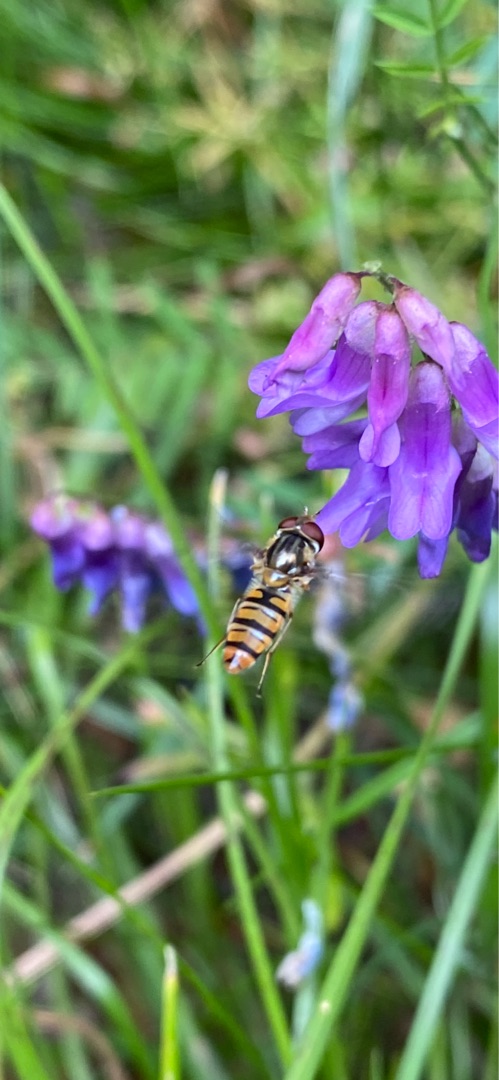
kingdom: Animalia
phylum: Arthropoda
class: Insecta
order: Diptera
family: Syrphidae
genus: Episyrphus
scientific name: Episyrphus balteatus
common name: Dobbeltbåndet svirreflue
